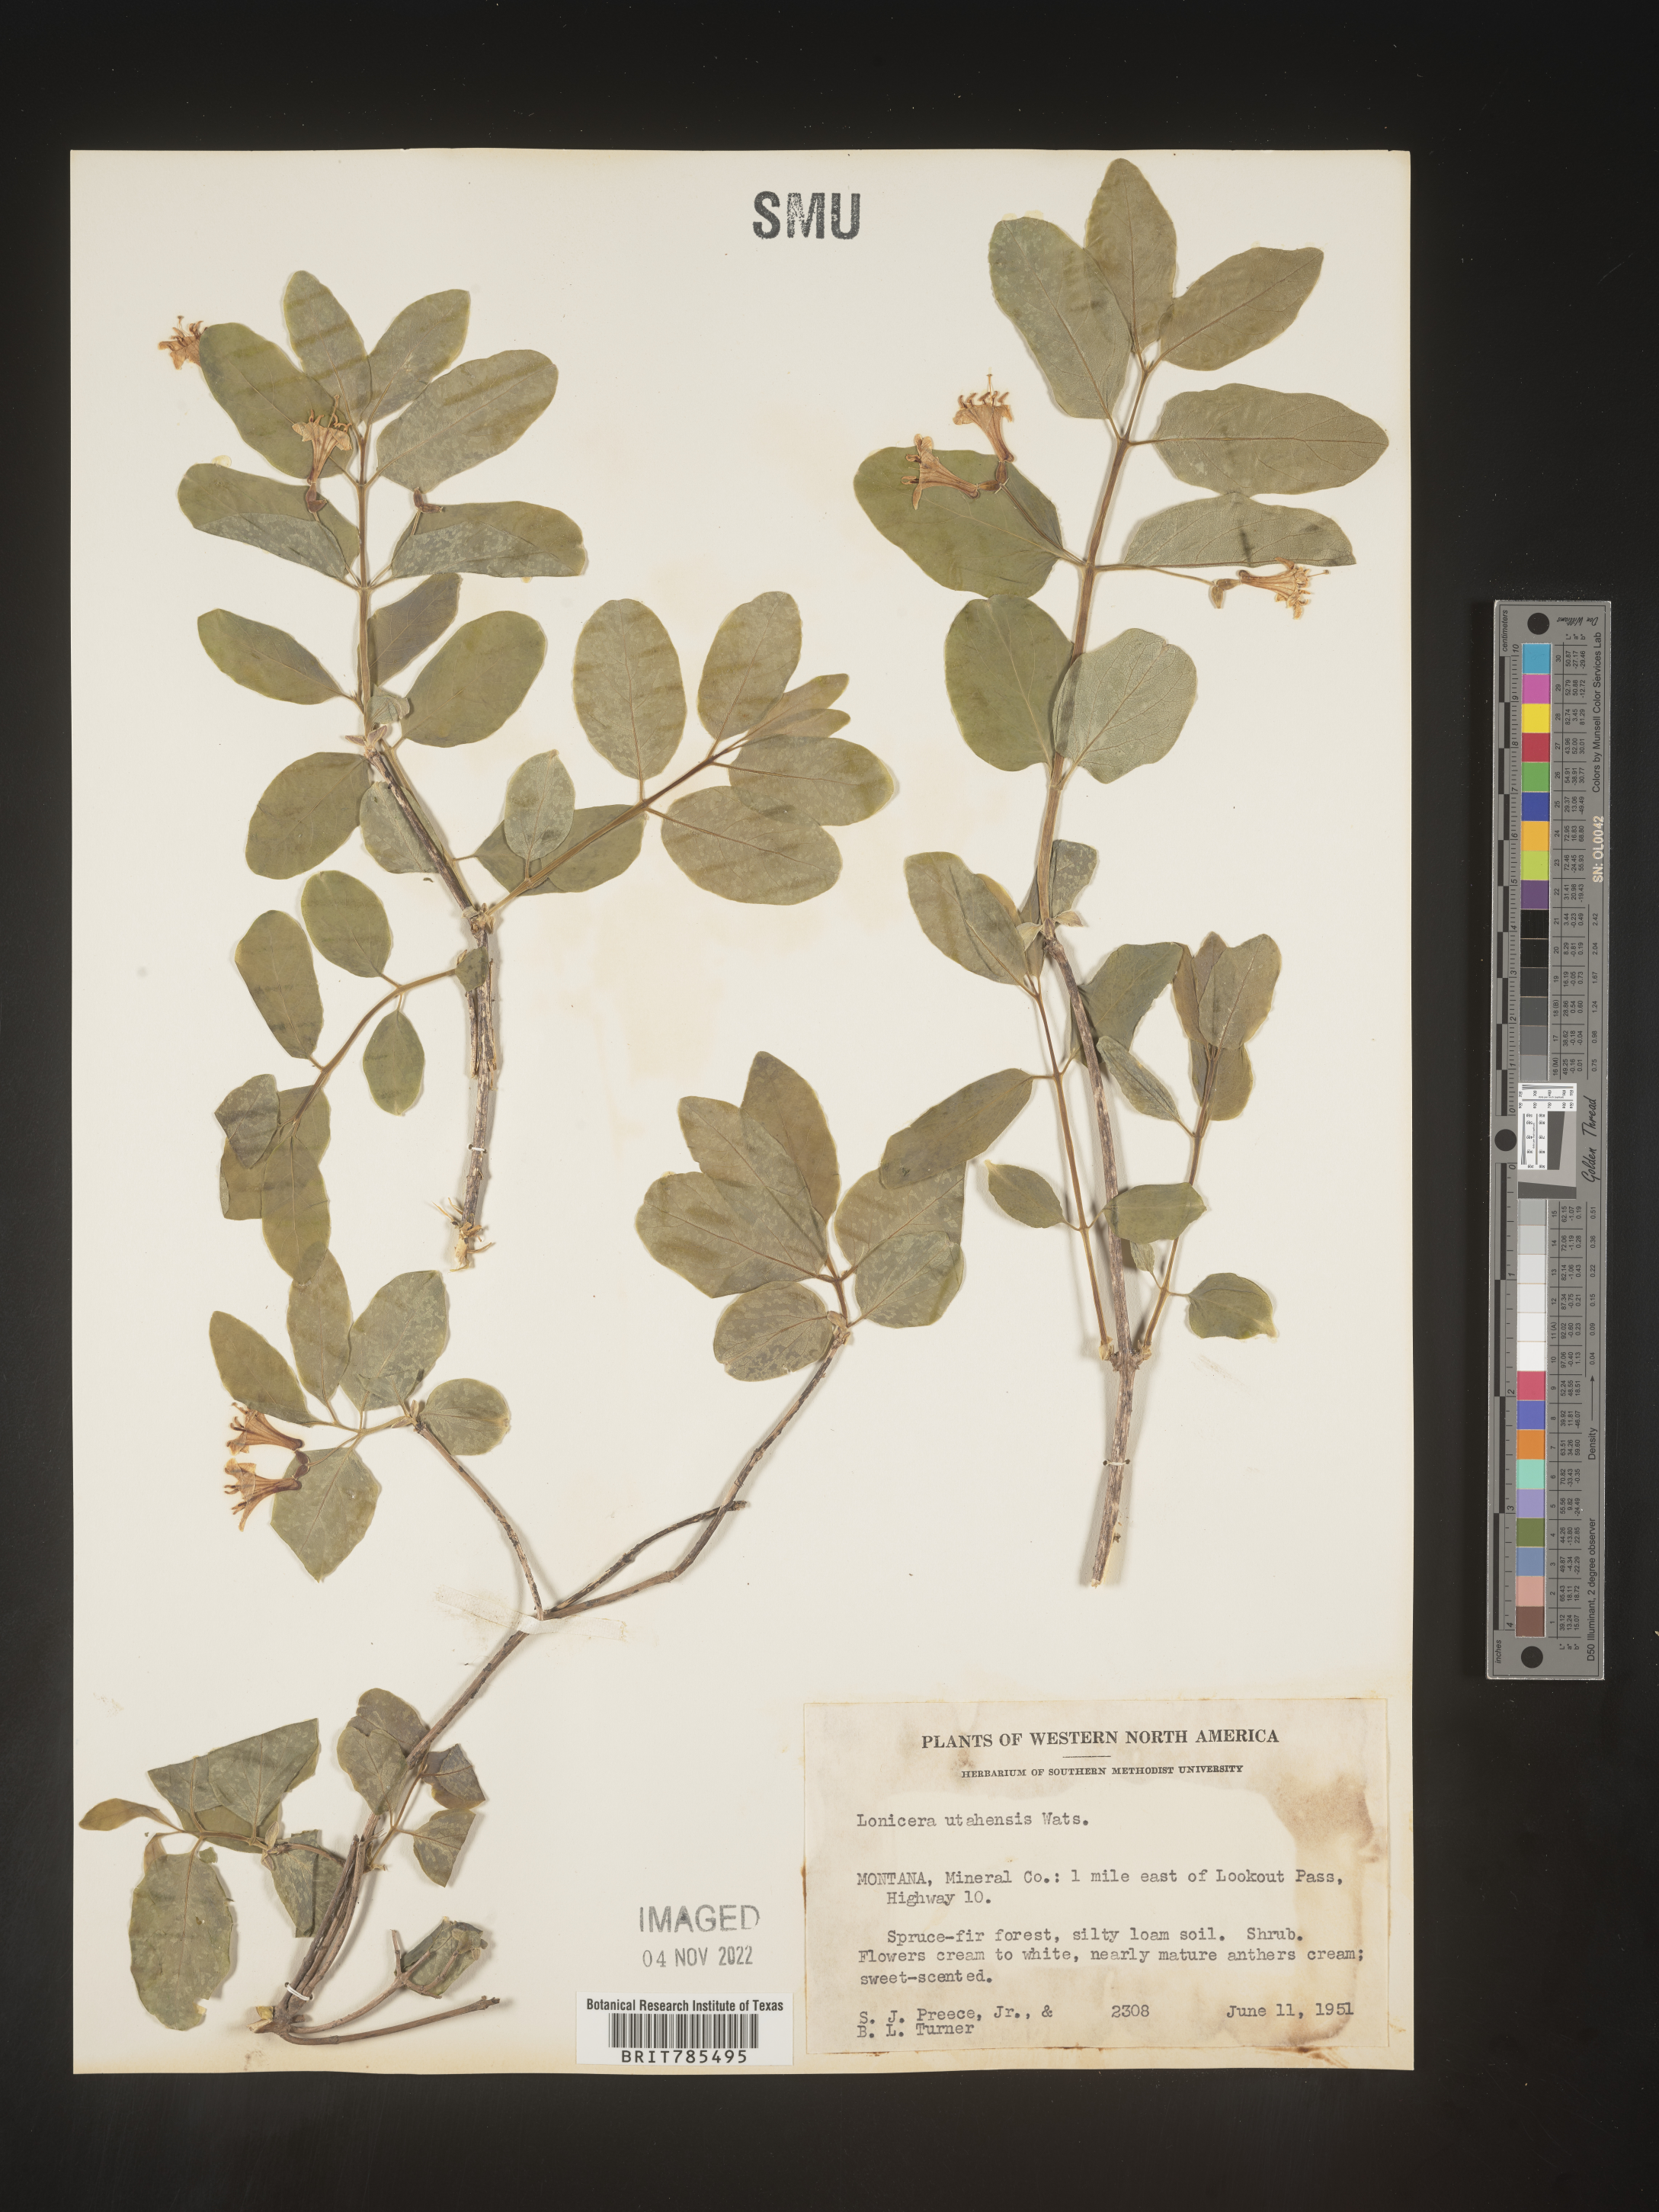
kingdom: Plantae
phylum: Tracheophyta
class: Magnoliopsida
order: Dipsacales
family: Caprifoliaceae
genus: Lonicera
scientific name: Lonicera utahensis
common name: Utah honeysuckle
